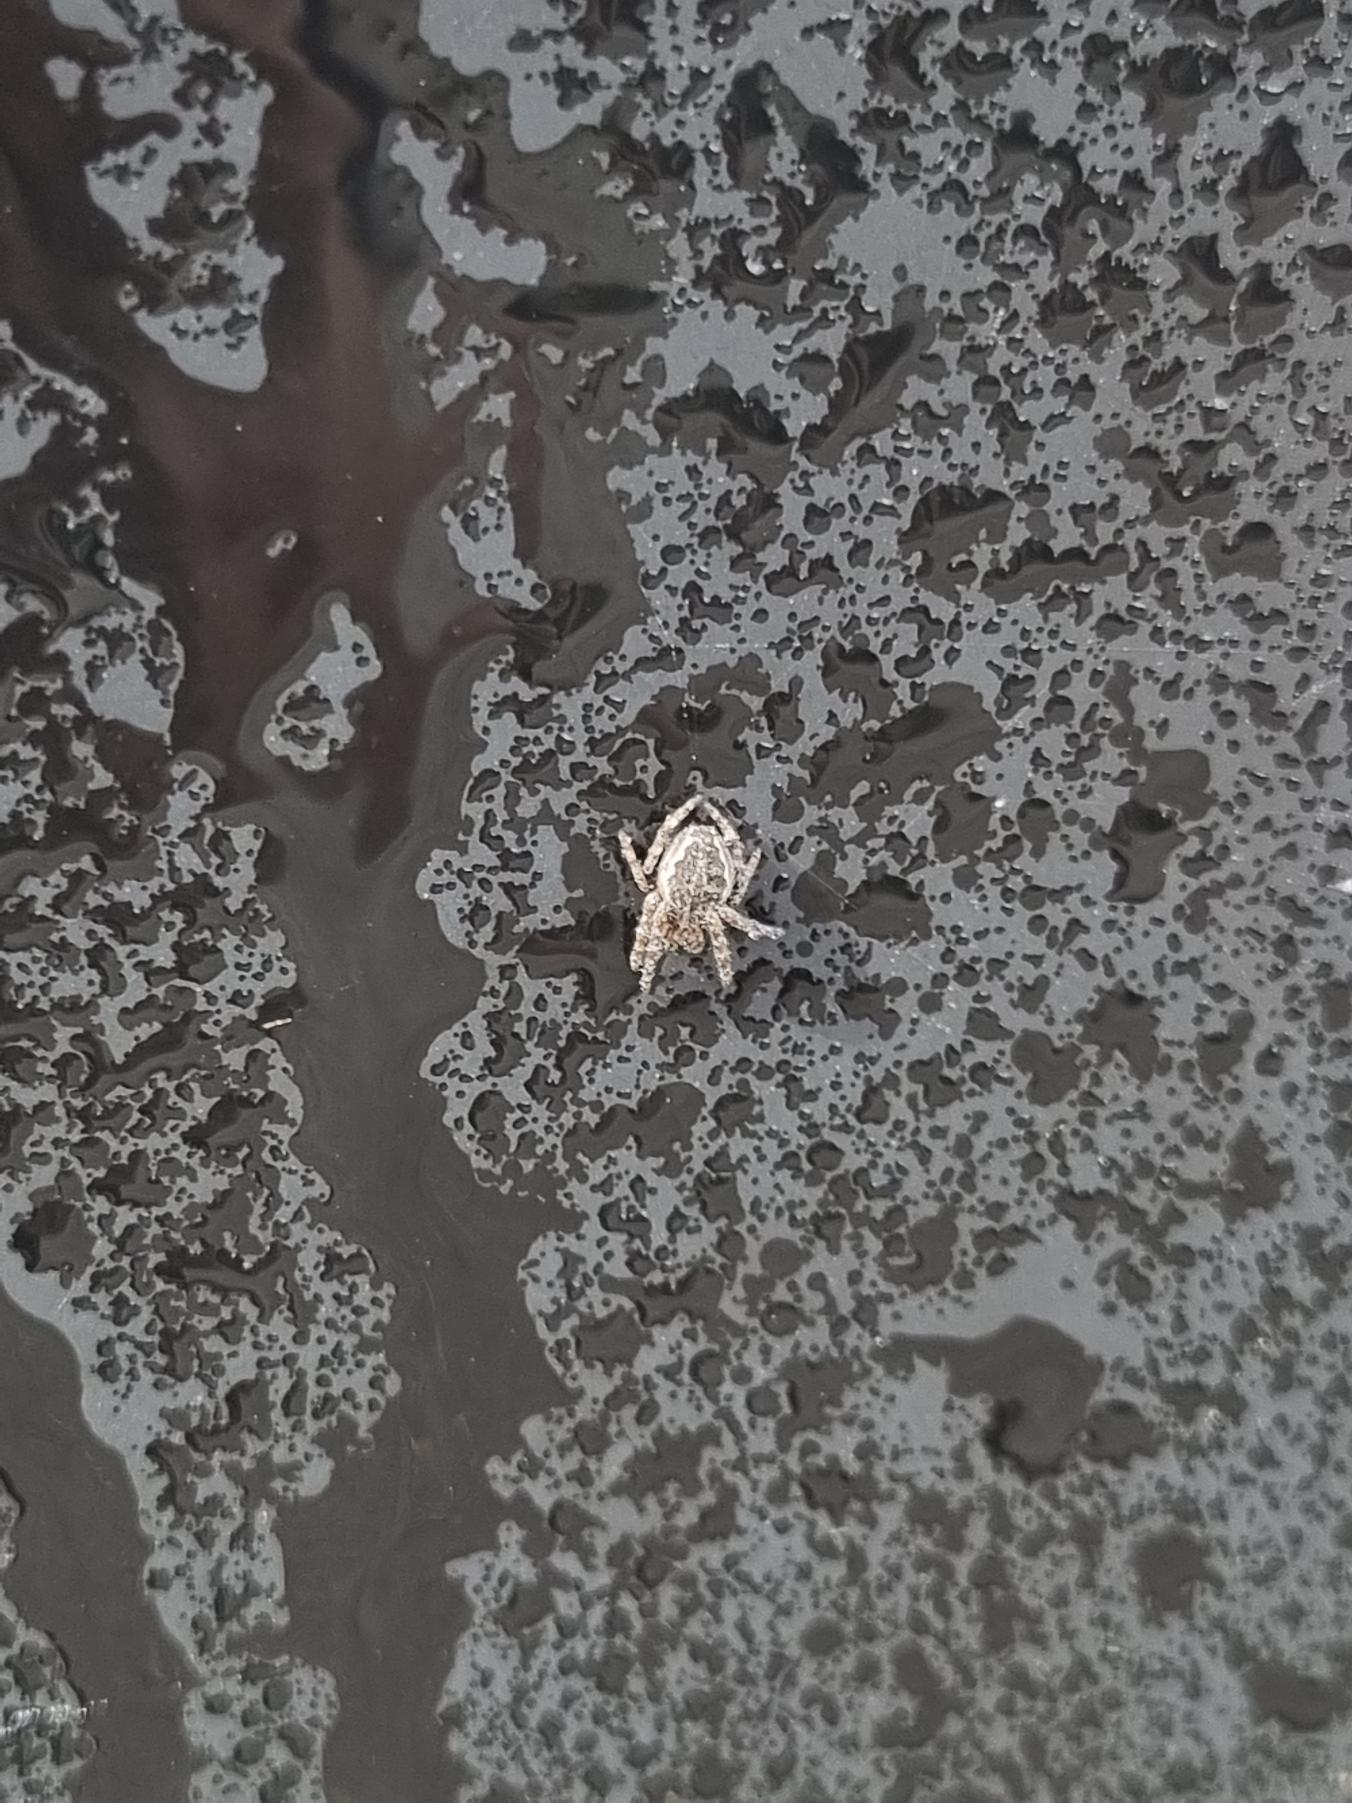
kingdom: Animalia
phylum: Arthropoda
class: Arachnida
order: Araneae
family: Araneidae
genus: Araneus
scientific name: Araneus diadematus
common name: Korsedderkop
